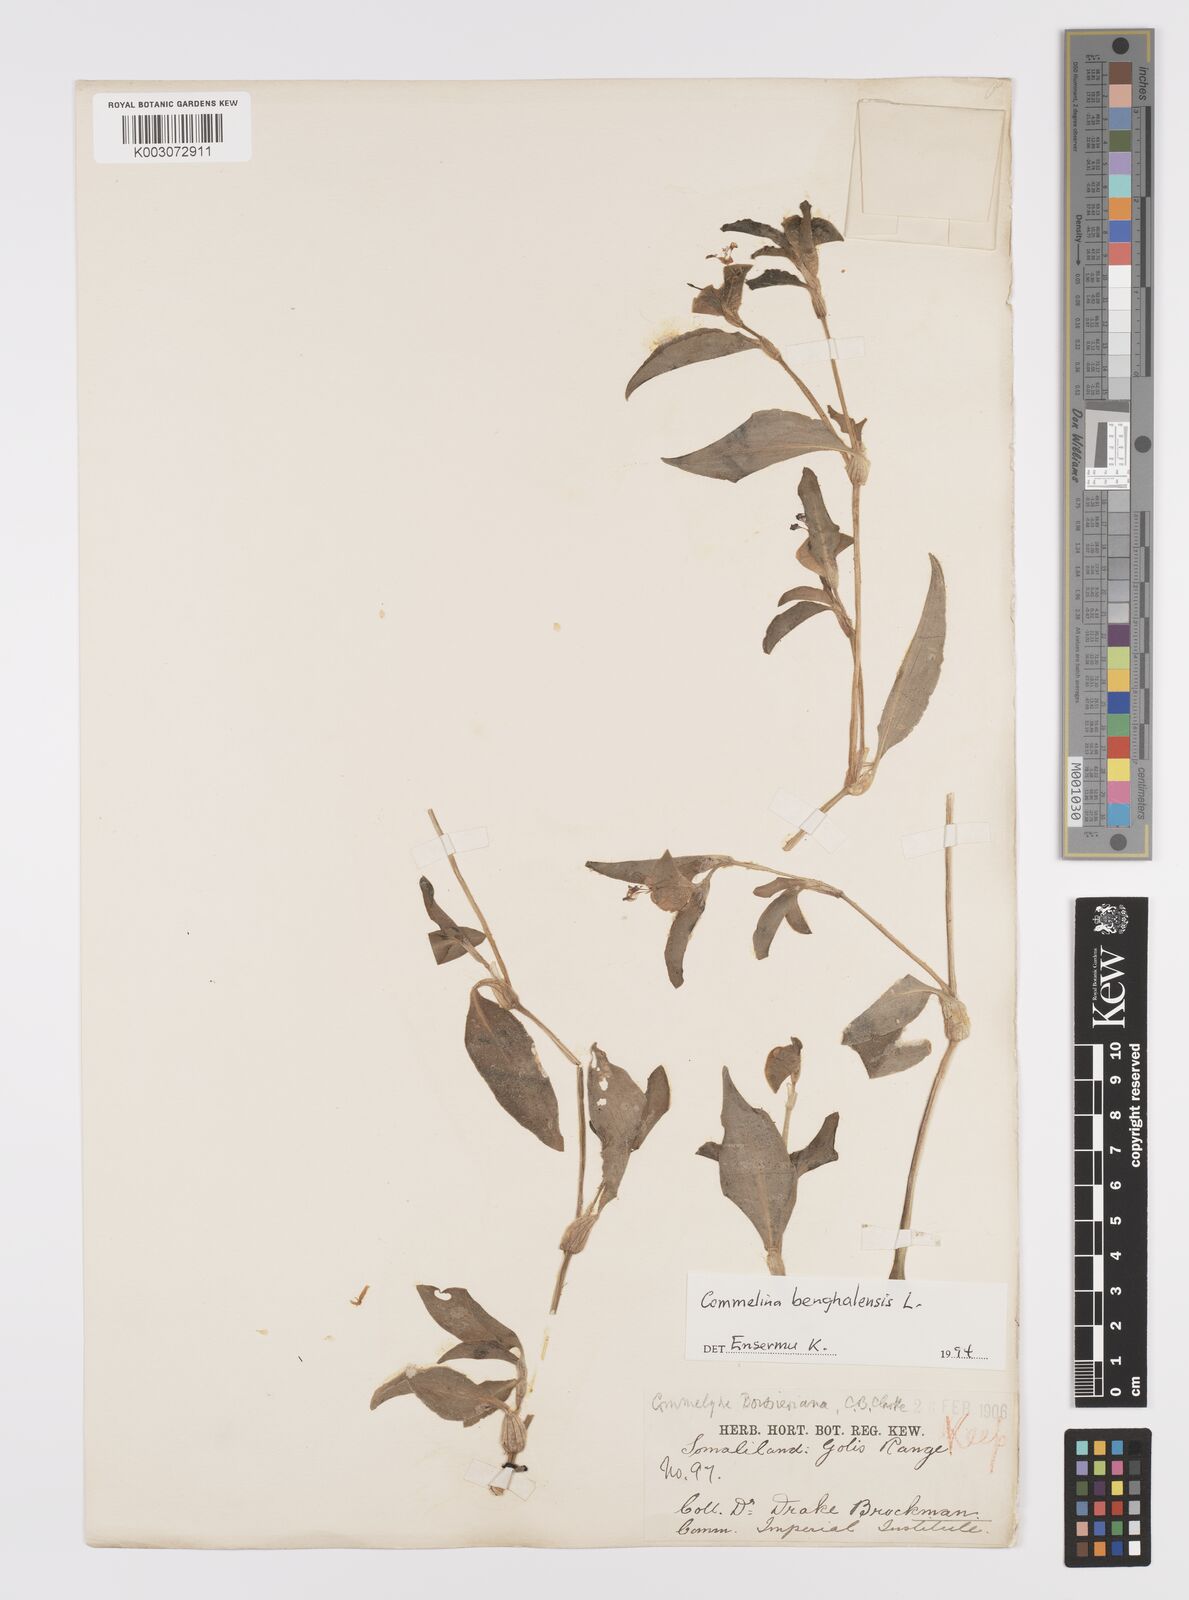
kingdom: Plantae
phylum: Tracheophyta
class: Liliopsida
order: Commelinales
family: Commelinaceae
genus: Commelina
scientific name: Commelina benghalensis
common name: Jio
